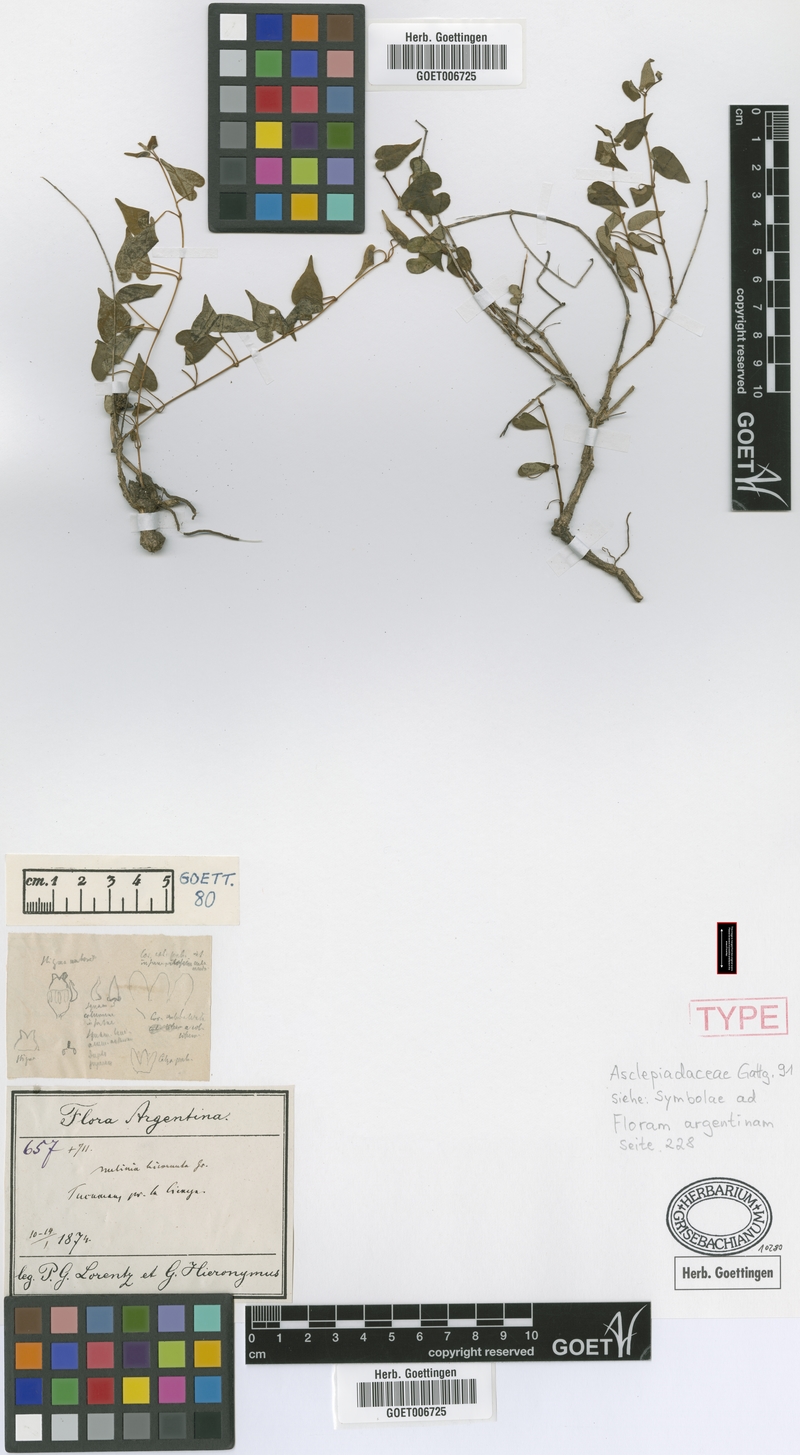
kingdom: Plantae
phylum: Tracheophyta
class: Magnoliopsida
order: Gentianales
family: Apocynaceae
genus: Philibertia
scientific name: Philibertia bicornuta
